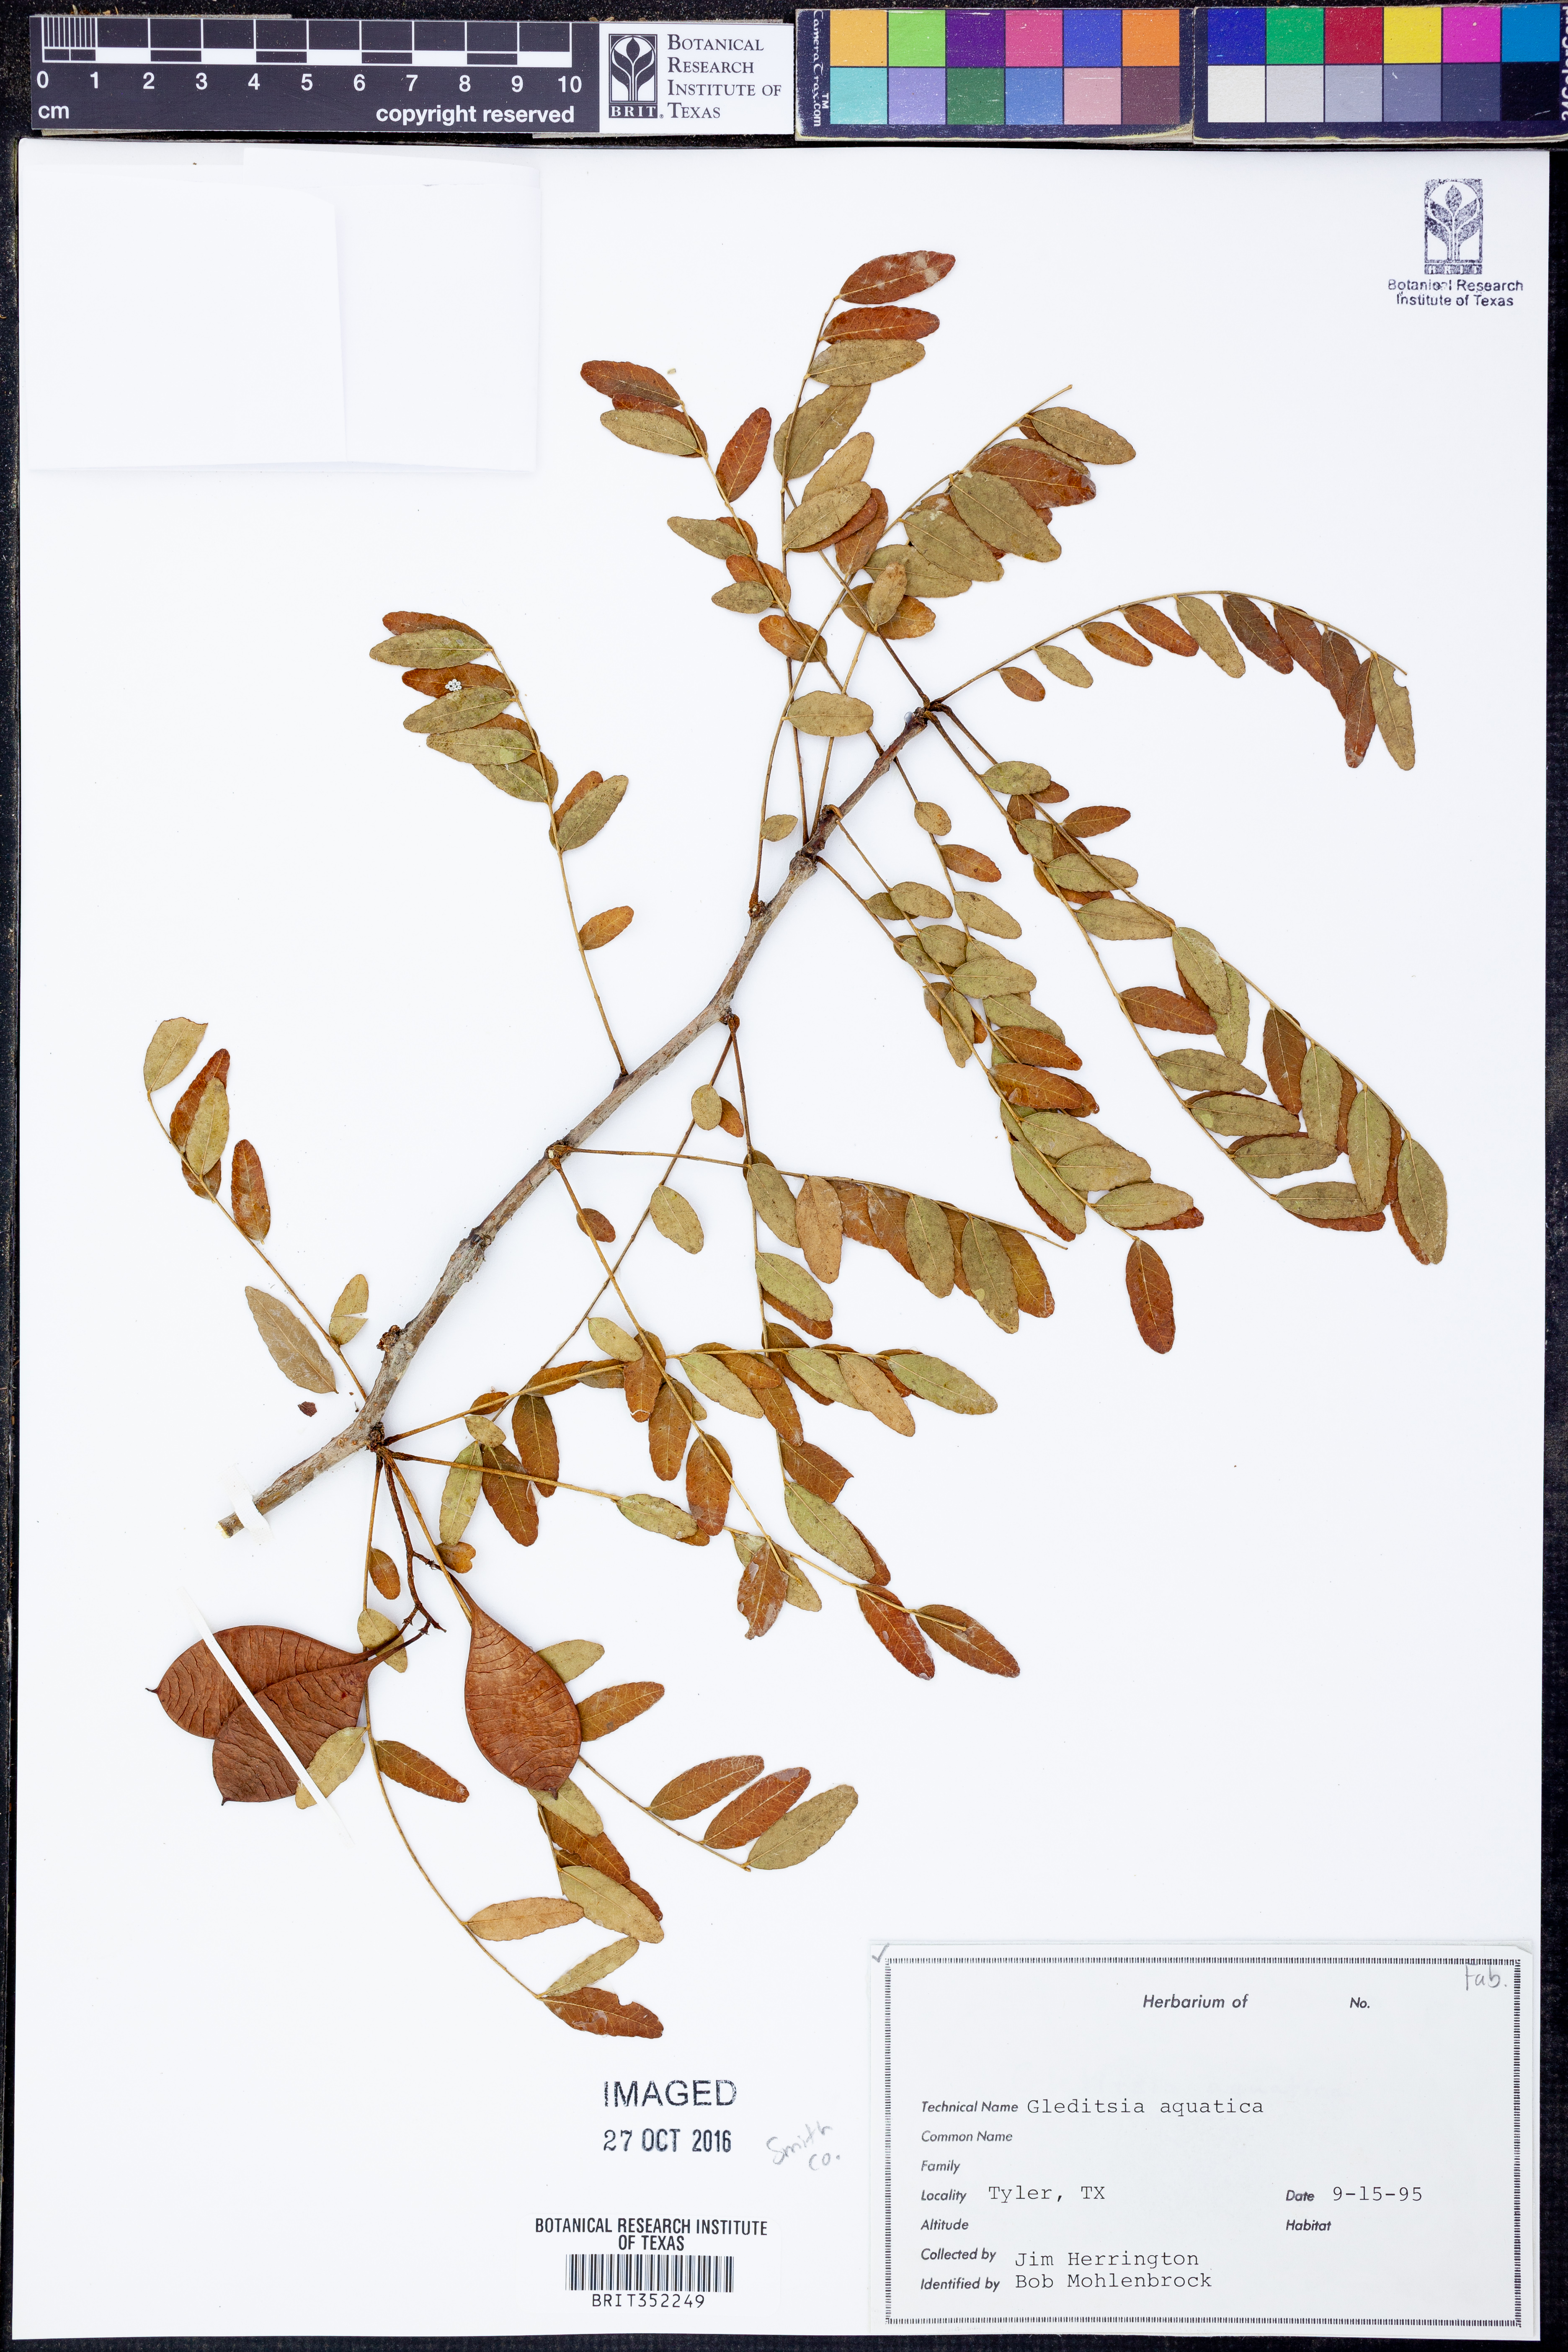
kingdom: Plantae
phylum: Tracheophyta
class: Magnoliopsida
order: Fabales
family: Fabaceae
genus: Gleditsia
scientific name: Gleditsia aquatica
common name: Swamp-locust
